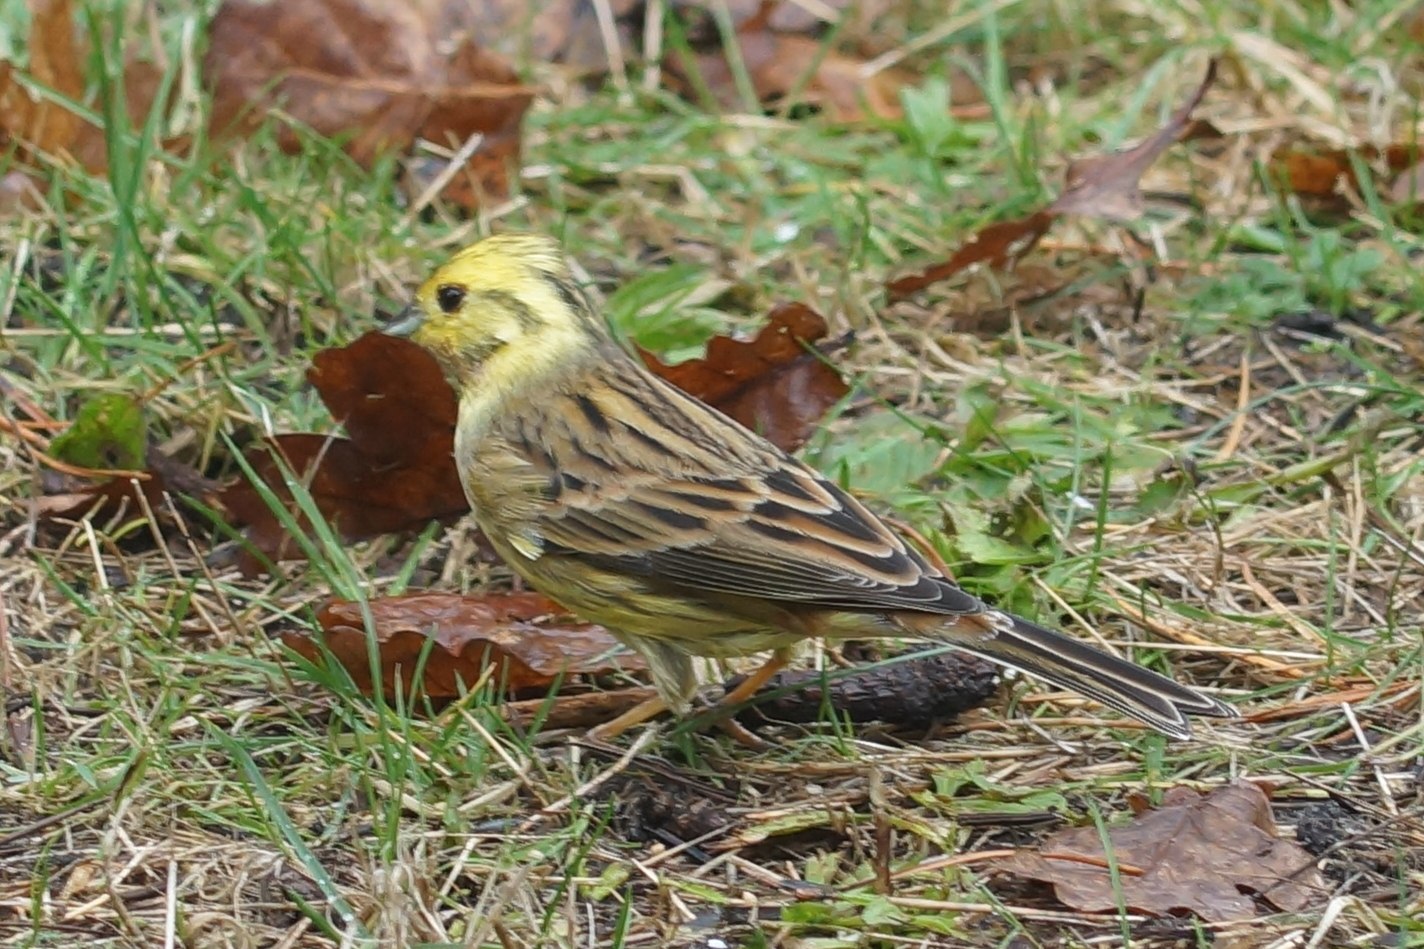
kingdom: Animalia
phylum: Chordata
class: Aves
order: Passeriformes
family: Emberizidae
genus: Emberiza
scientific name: Emberiza citrinella
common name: Gulspurv
